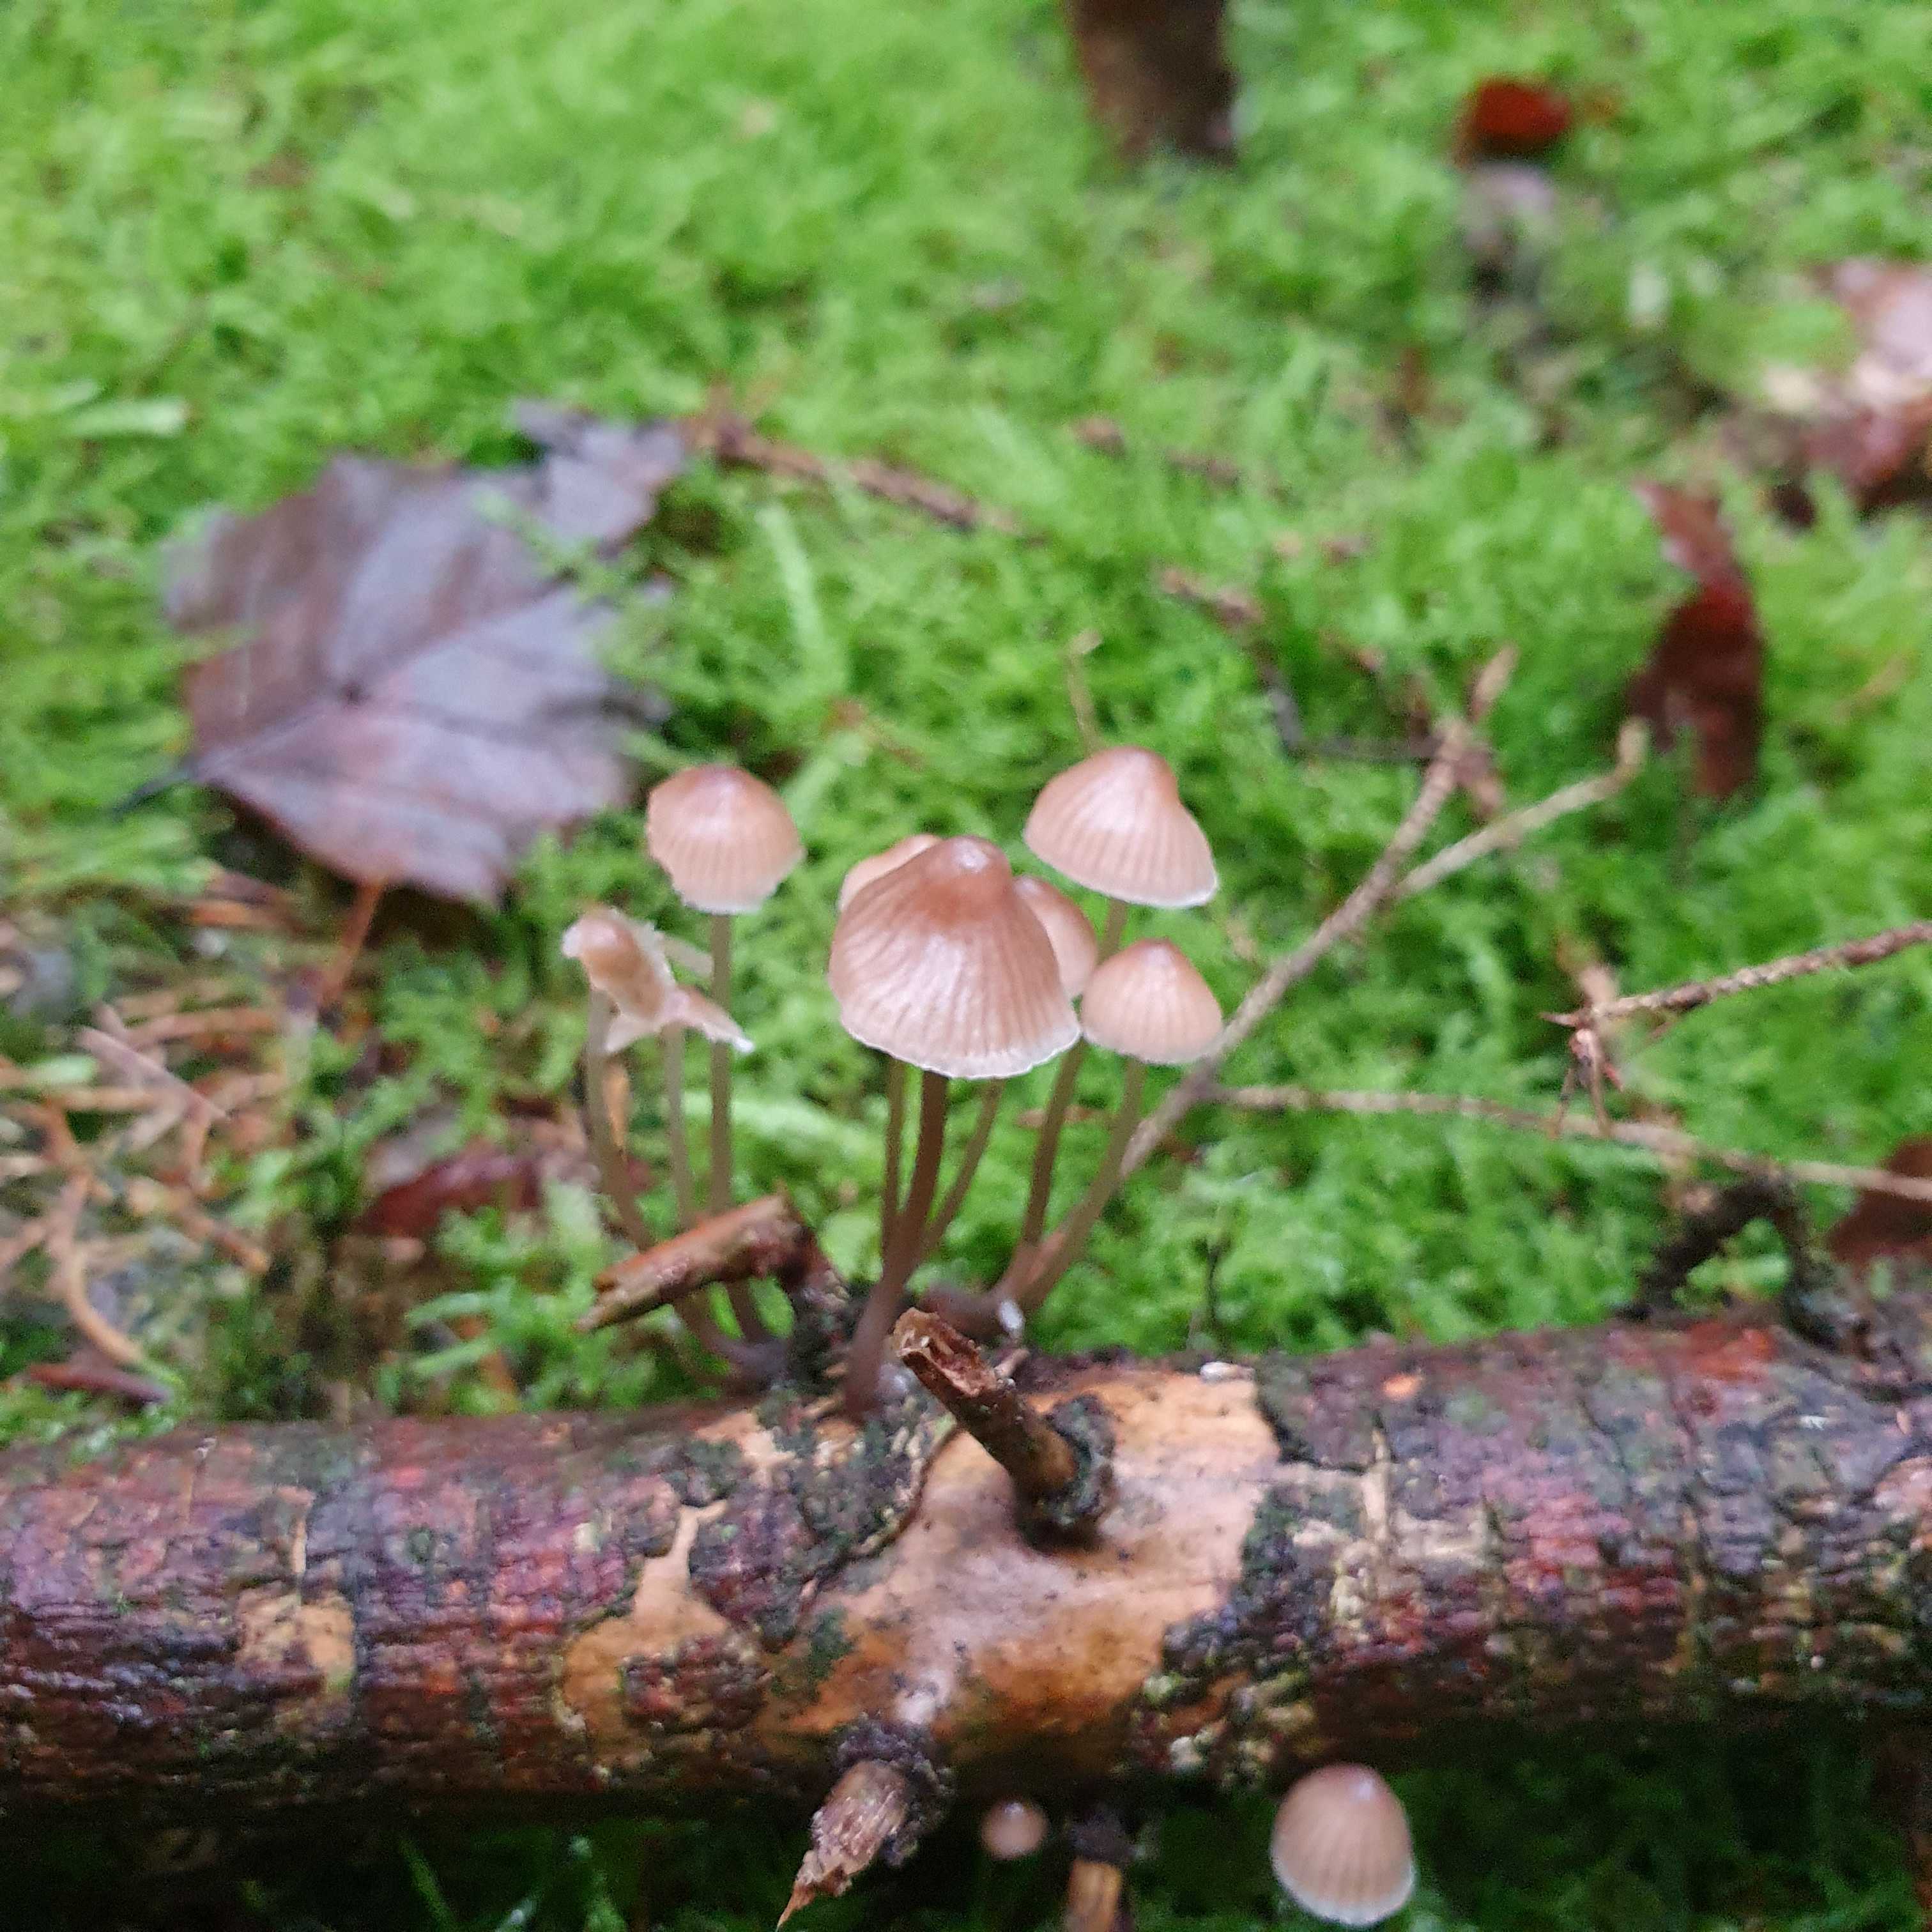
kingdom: Fungi
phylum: Basidiomycota
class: Agaricomycetes
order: Agaricales
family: Mycenaceae
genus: Mycena
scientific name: Mycena metata
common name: rødlig huesvamp
